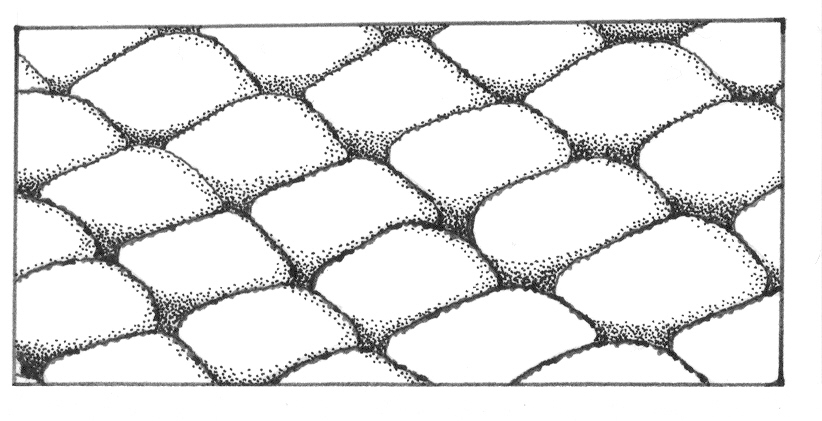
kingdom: Animalia
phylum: Chordata
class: Elasmobranchii
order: Carcharhiniformes
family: Triakidae
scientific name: Triakidae
